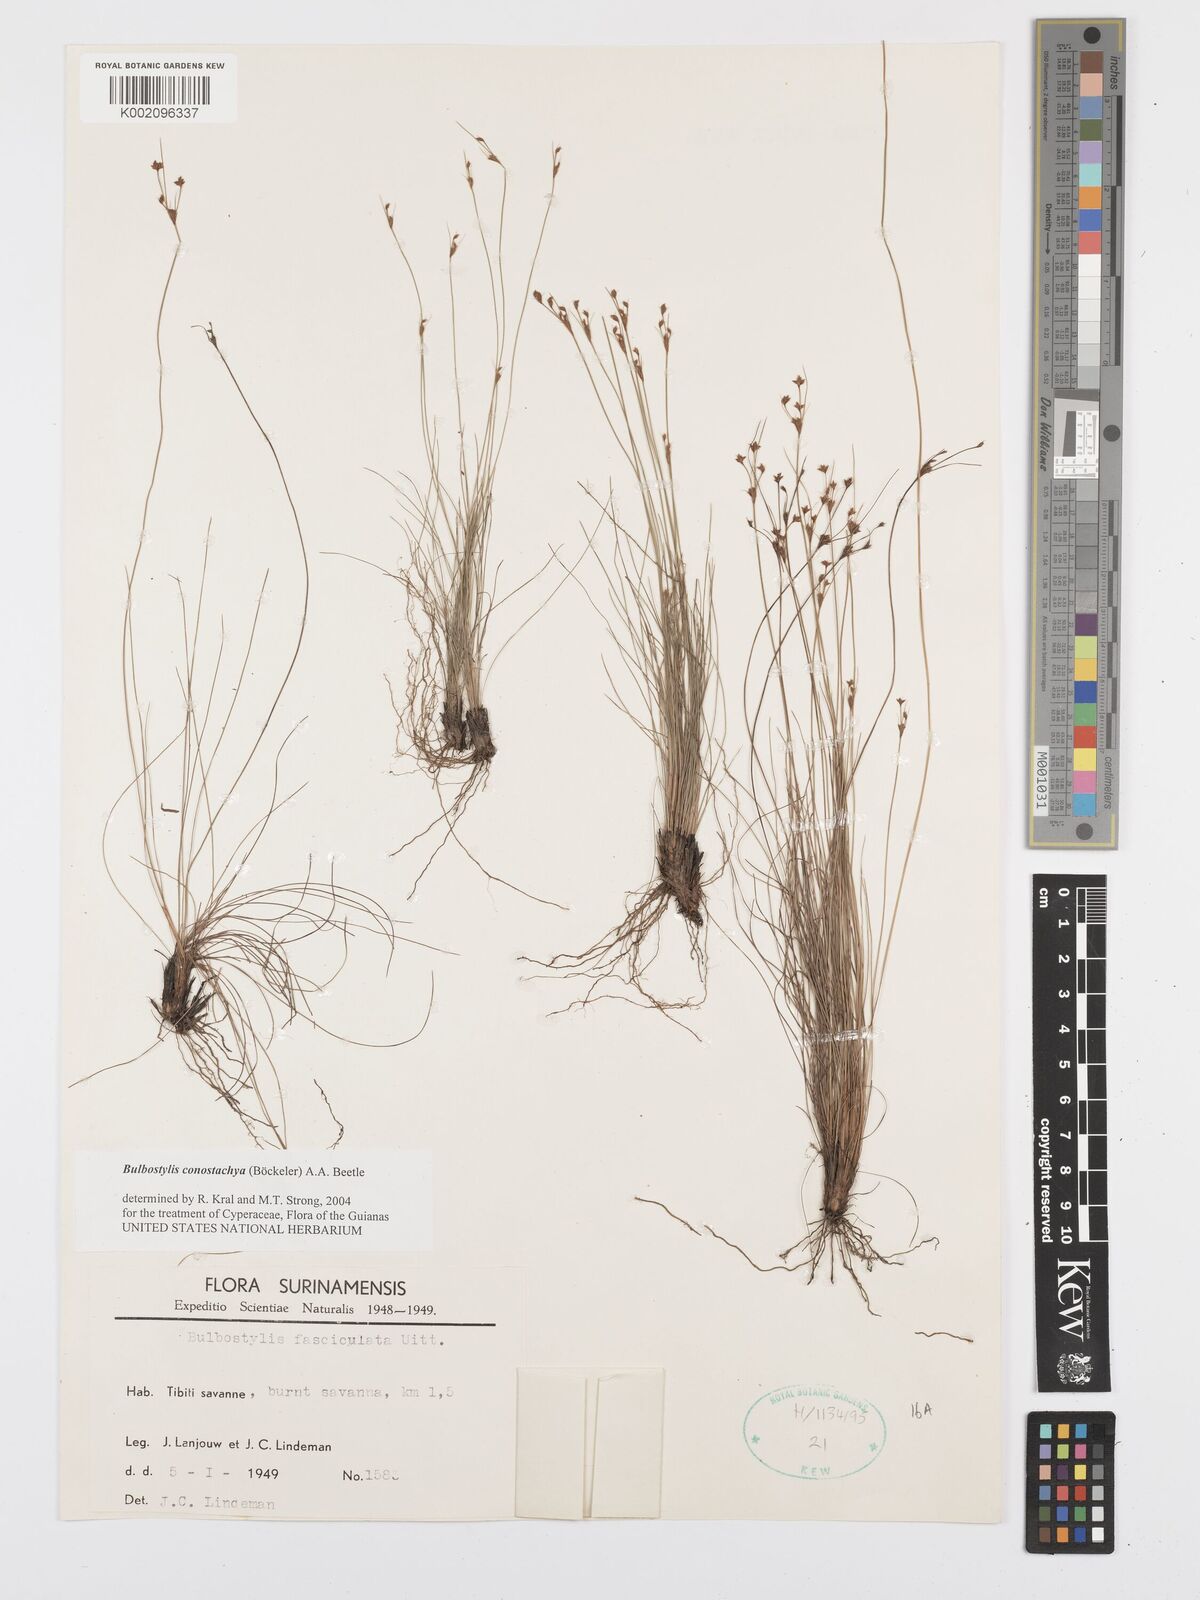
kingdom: Plantae
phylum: Tracheophyta
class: Liliopsida
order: Poales
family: Cyperaceae
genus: Bulbostylis
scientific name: Bulbostylis conostachya
